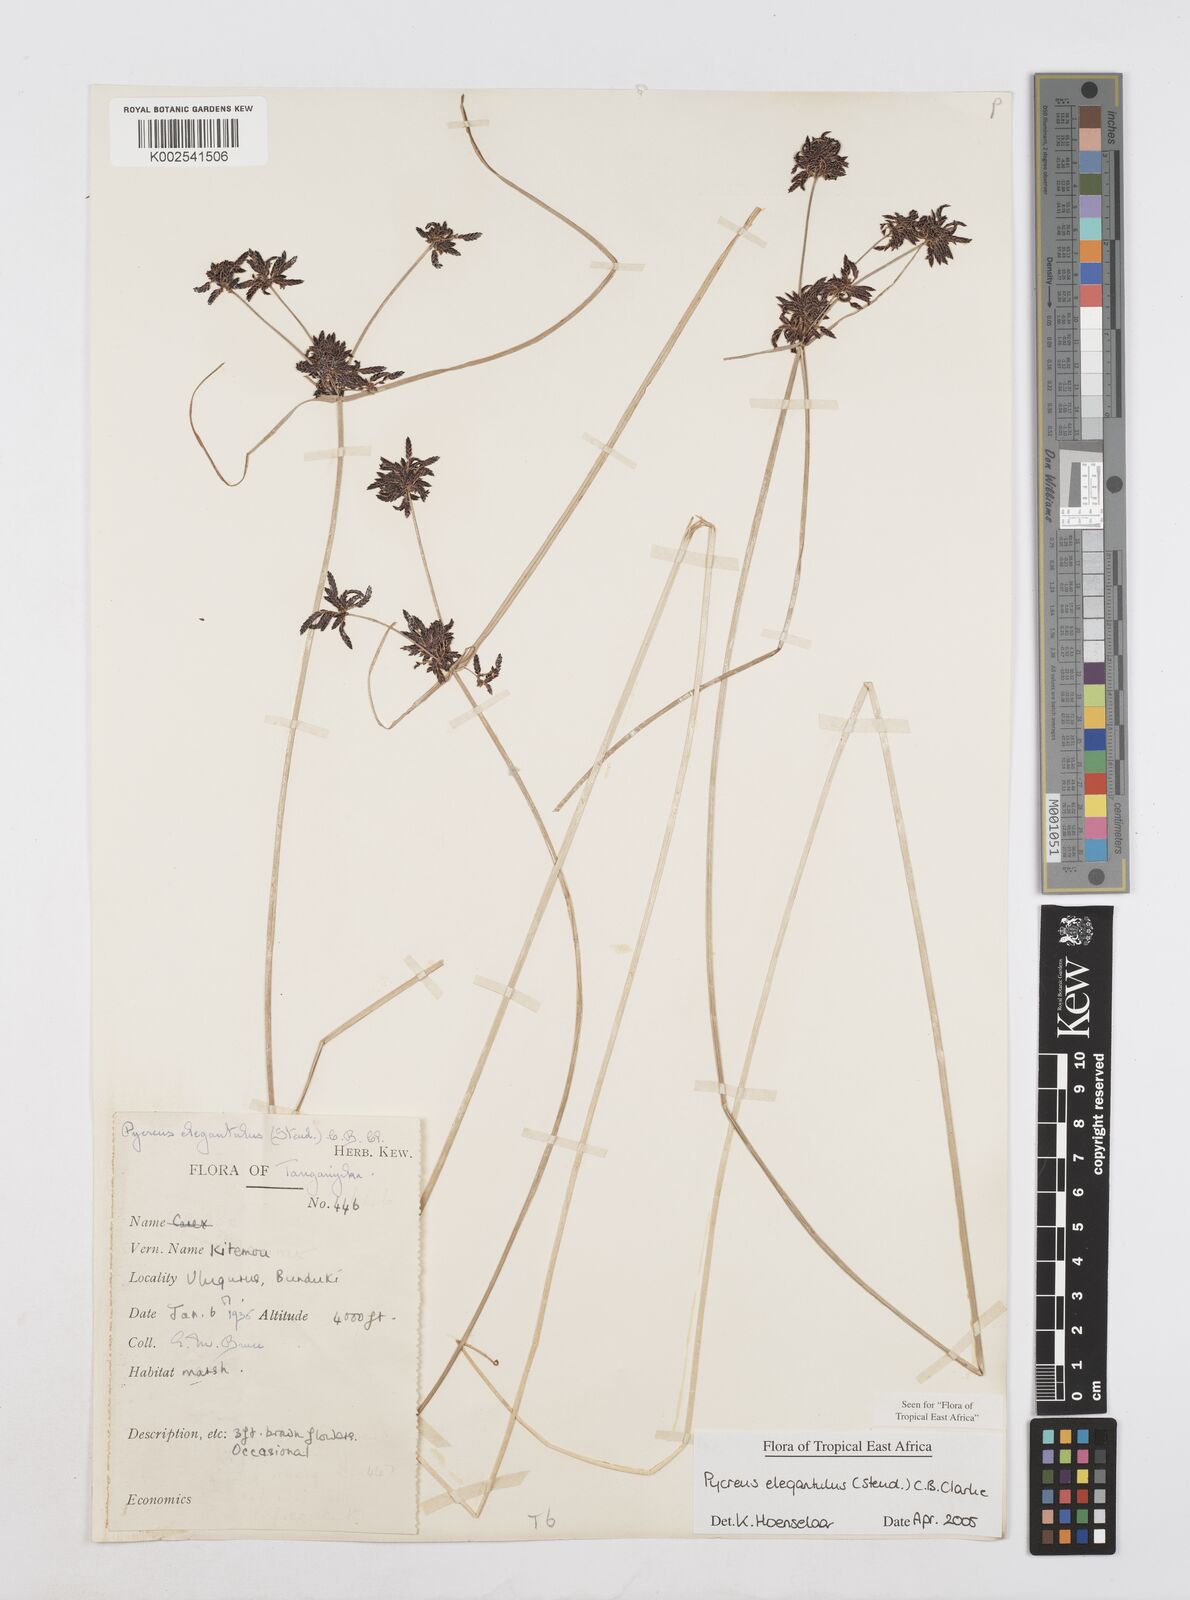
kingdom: Plantae
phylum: Tracheophyta
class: Liliopsida
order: Poales
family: Cyperaceae
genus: Cyperus
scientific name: Cyperus elegantulus
